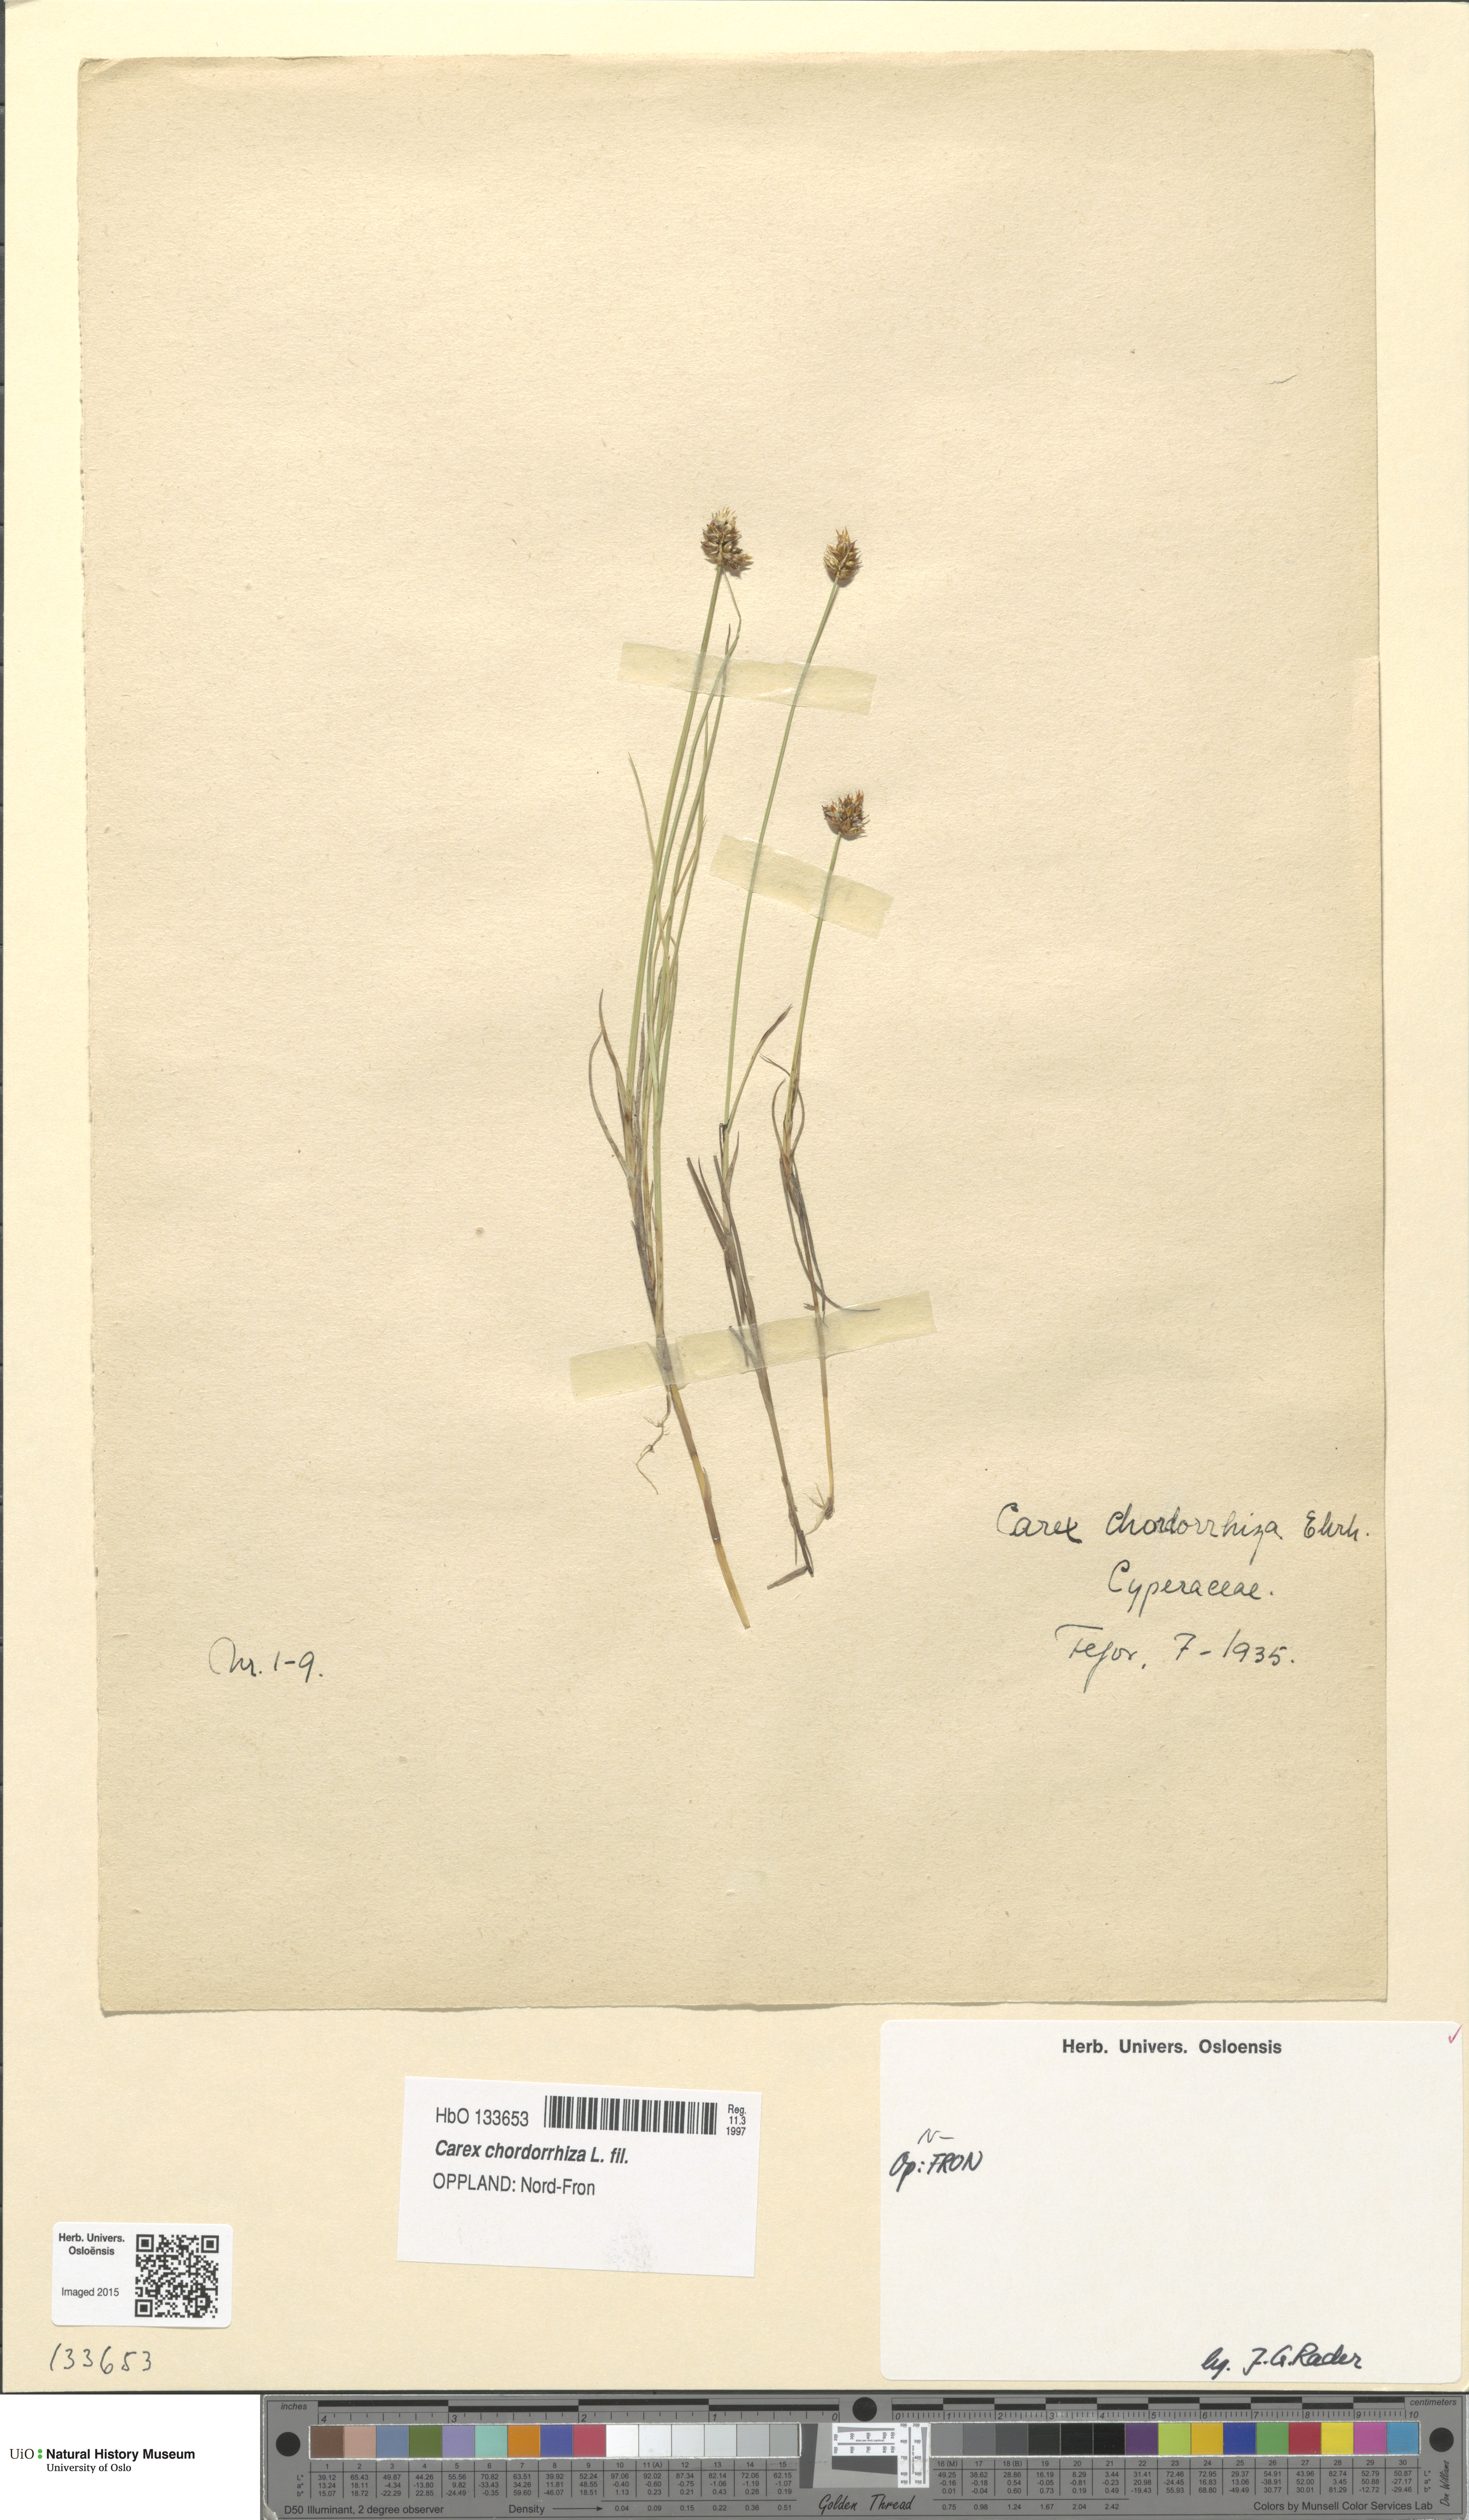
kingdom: Plantae
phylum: Tracheophyta
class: Liliopsida
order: Poales
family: Cyperaceae
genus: Carex
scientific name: Carex chordorrhiza
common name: String sedge
